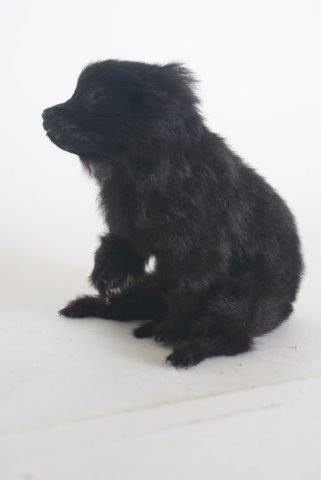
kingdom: Animalia
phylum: Chordata
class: Mammalia
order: Carnivora
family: Canidae
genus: Canis
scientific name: Canis lupus
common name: Gray wolf
